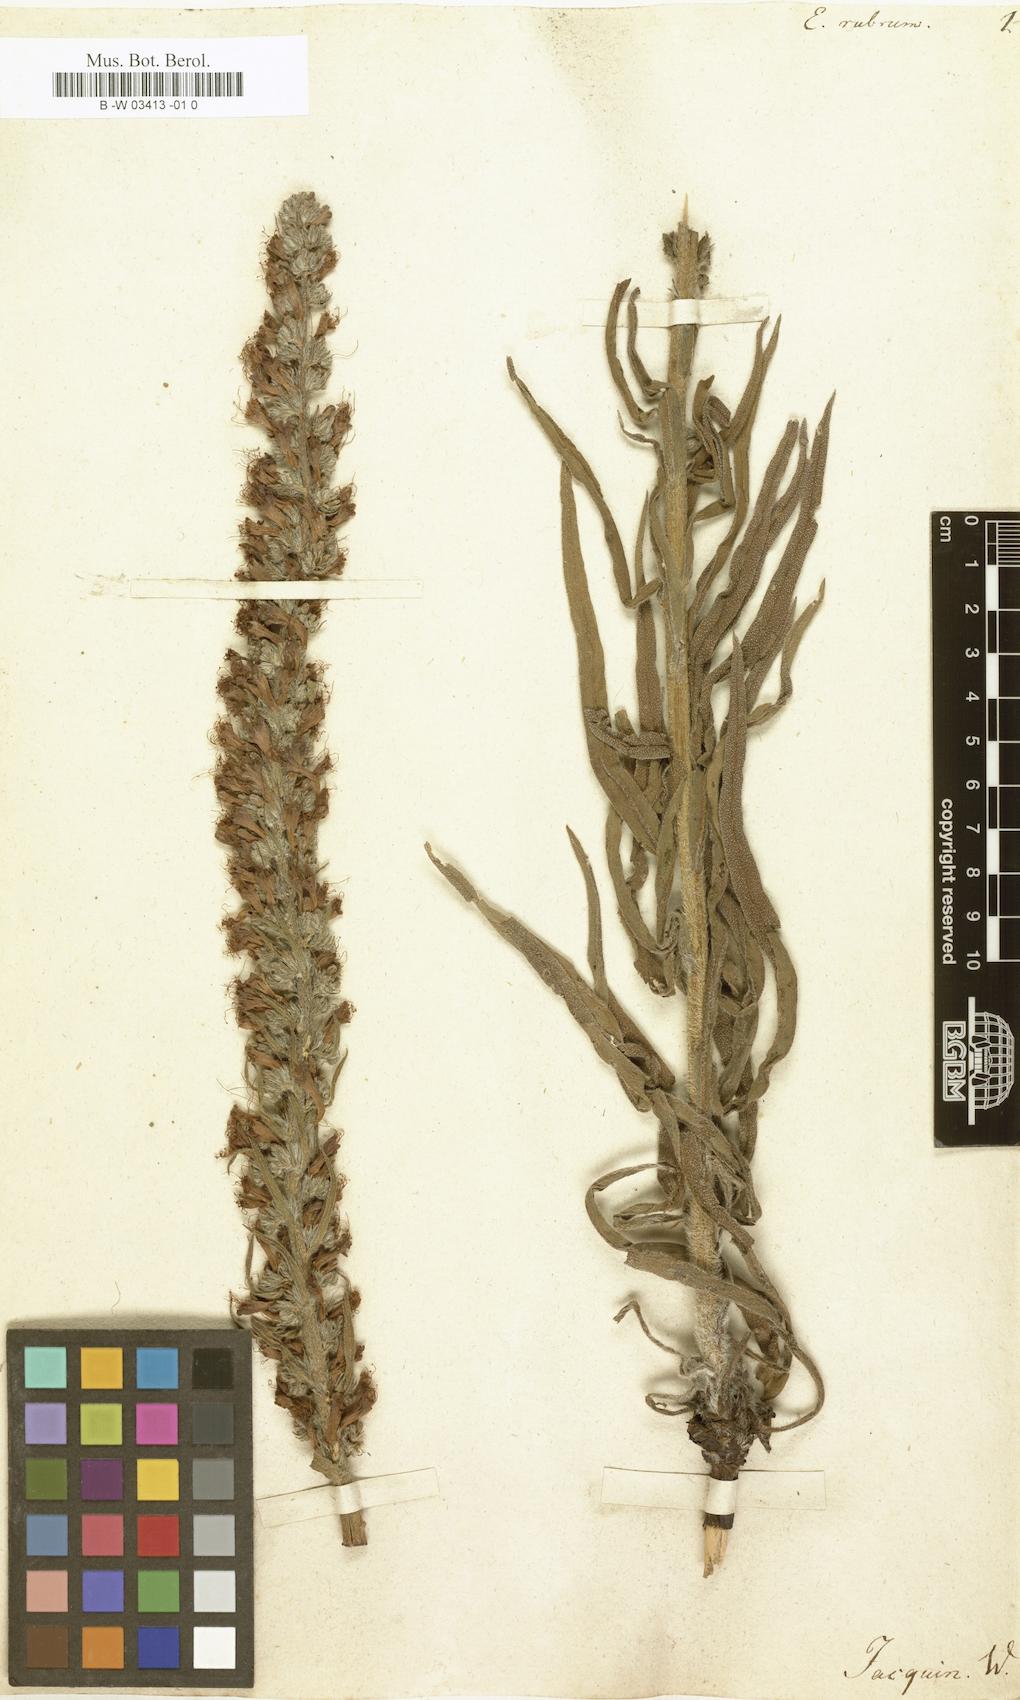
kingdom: Plantae
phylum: Tracheophyta
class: Magnoliopsida
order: Boraginales
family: Boraginaceae
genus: Pontechium
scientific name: Pontechium maculatum
